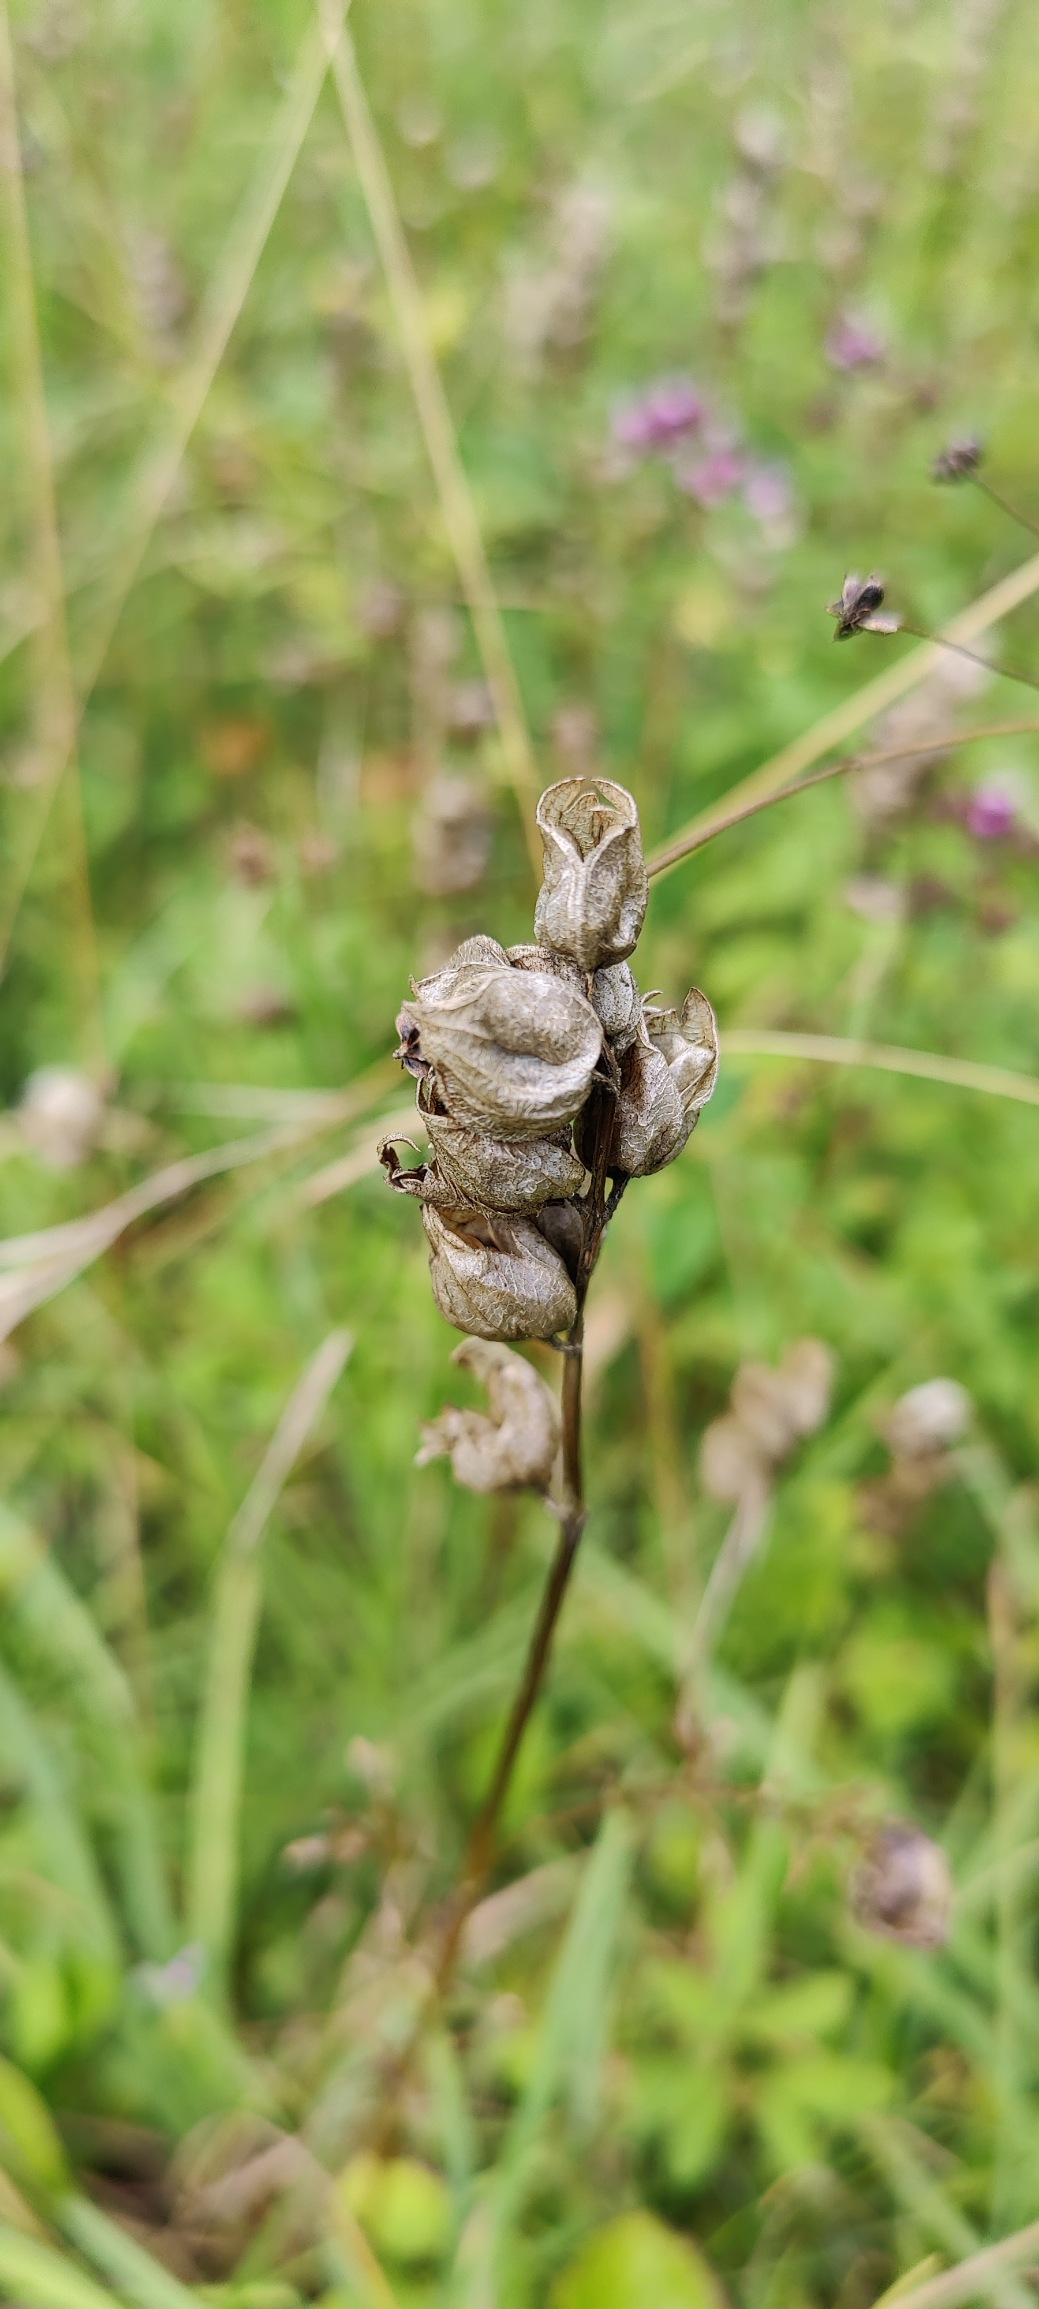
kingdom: Plantae
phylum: Tracheophyta
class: Magnoliopsida
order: Lamiales
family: Orobanchaceae
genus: Rhinanthus
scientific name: Rhinanthus
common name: Skjallerslægten
